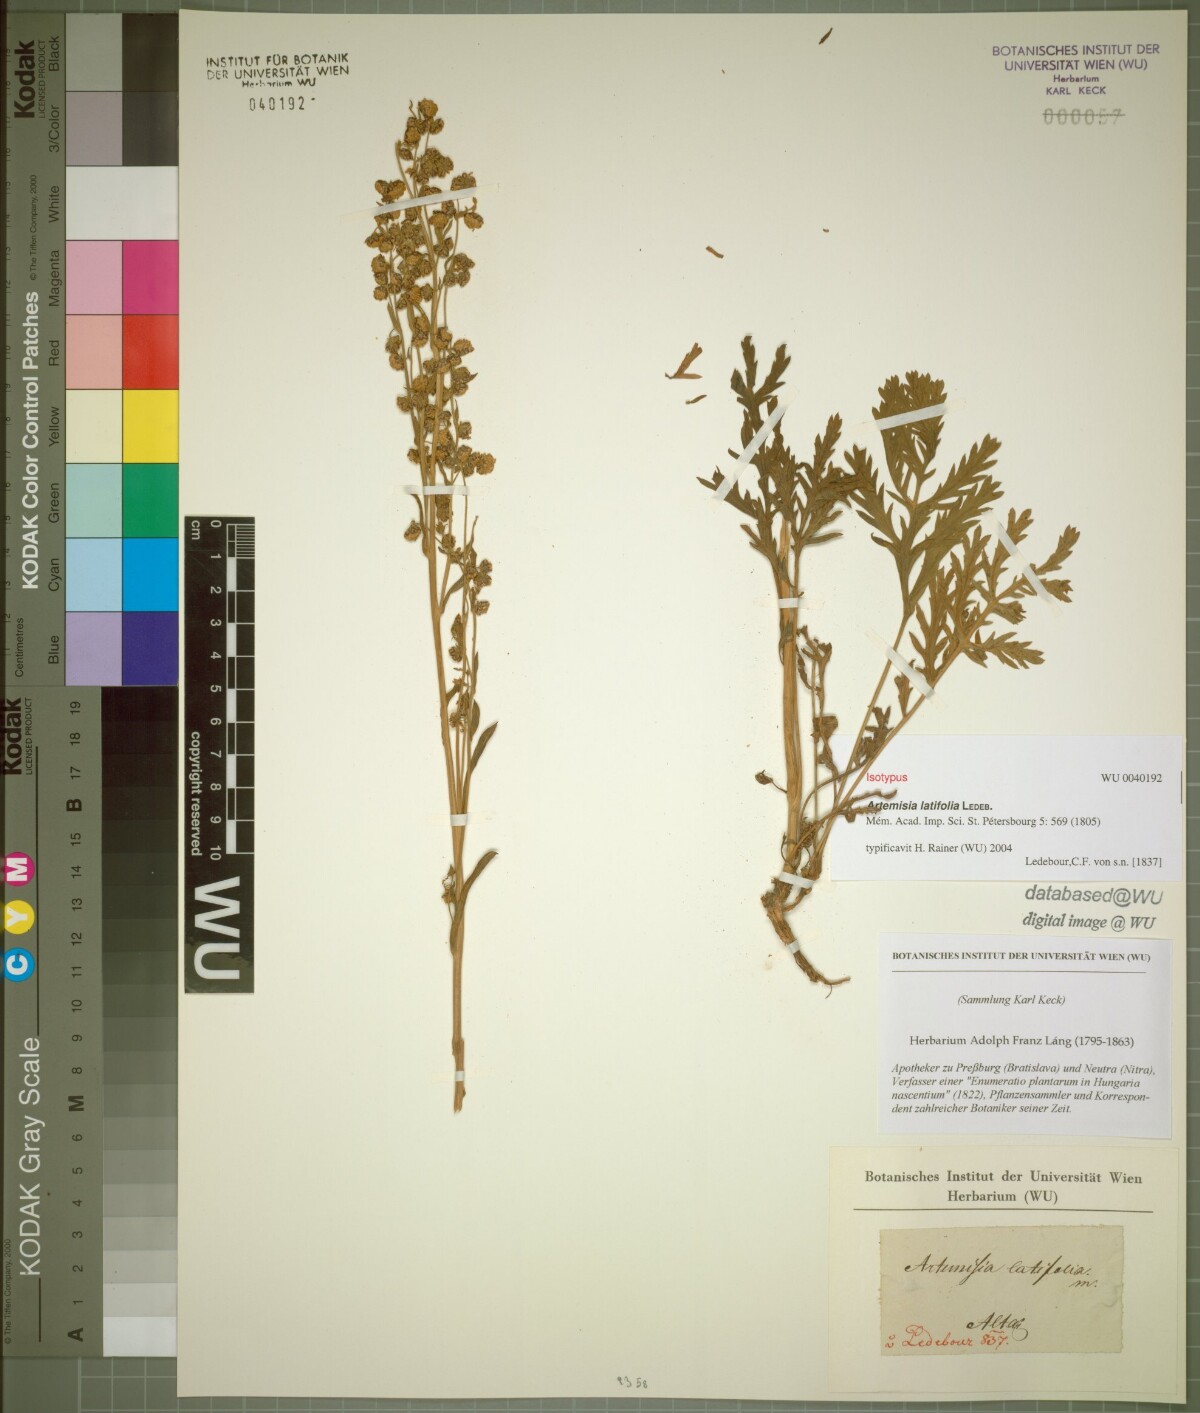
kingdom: Plantae
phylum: Tracheophyta
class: Magnoliopsida
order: Asterales
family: Asteraceae
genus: Artemisia
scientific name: Artemisia latifolia
